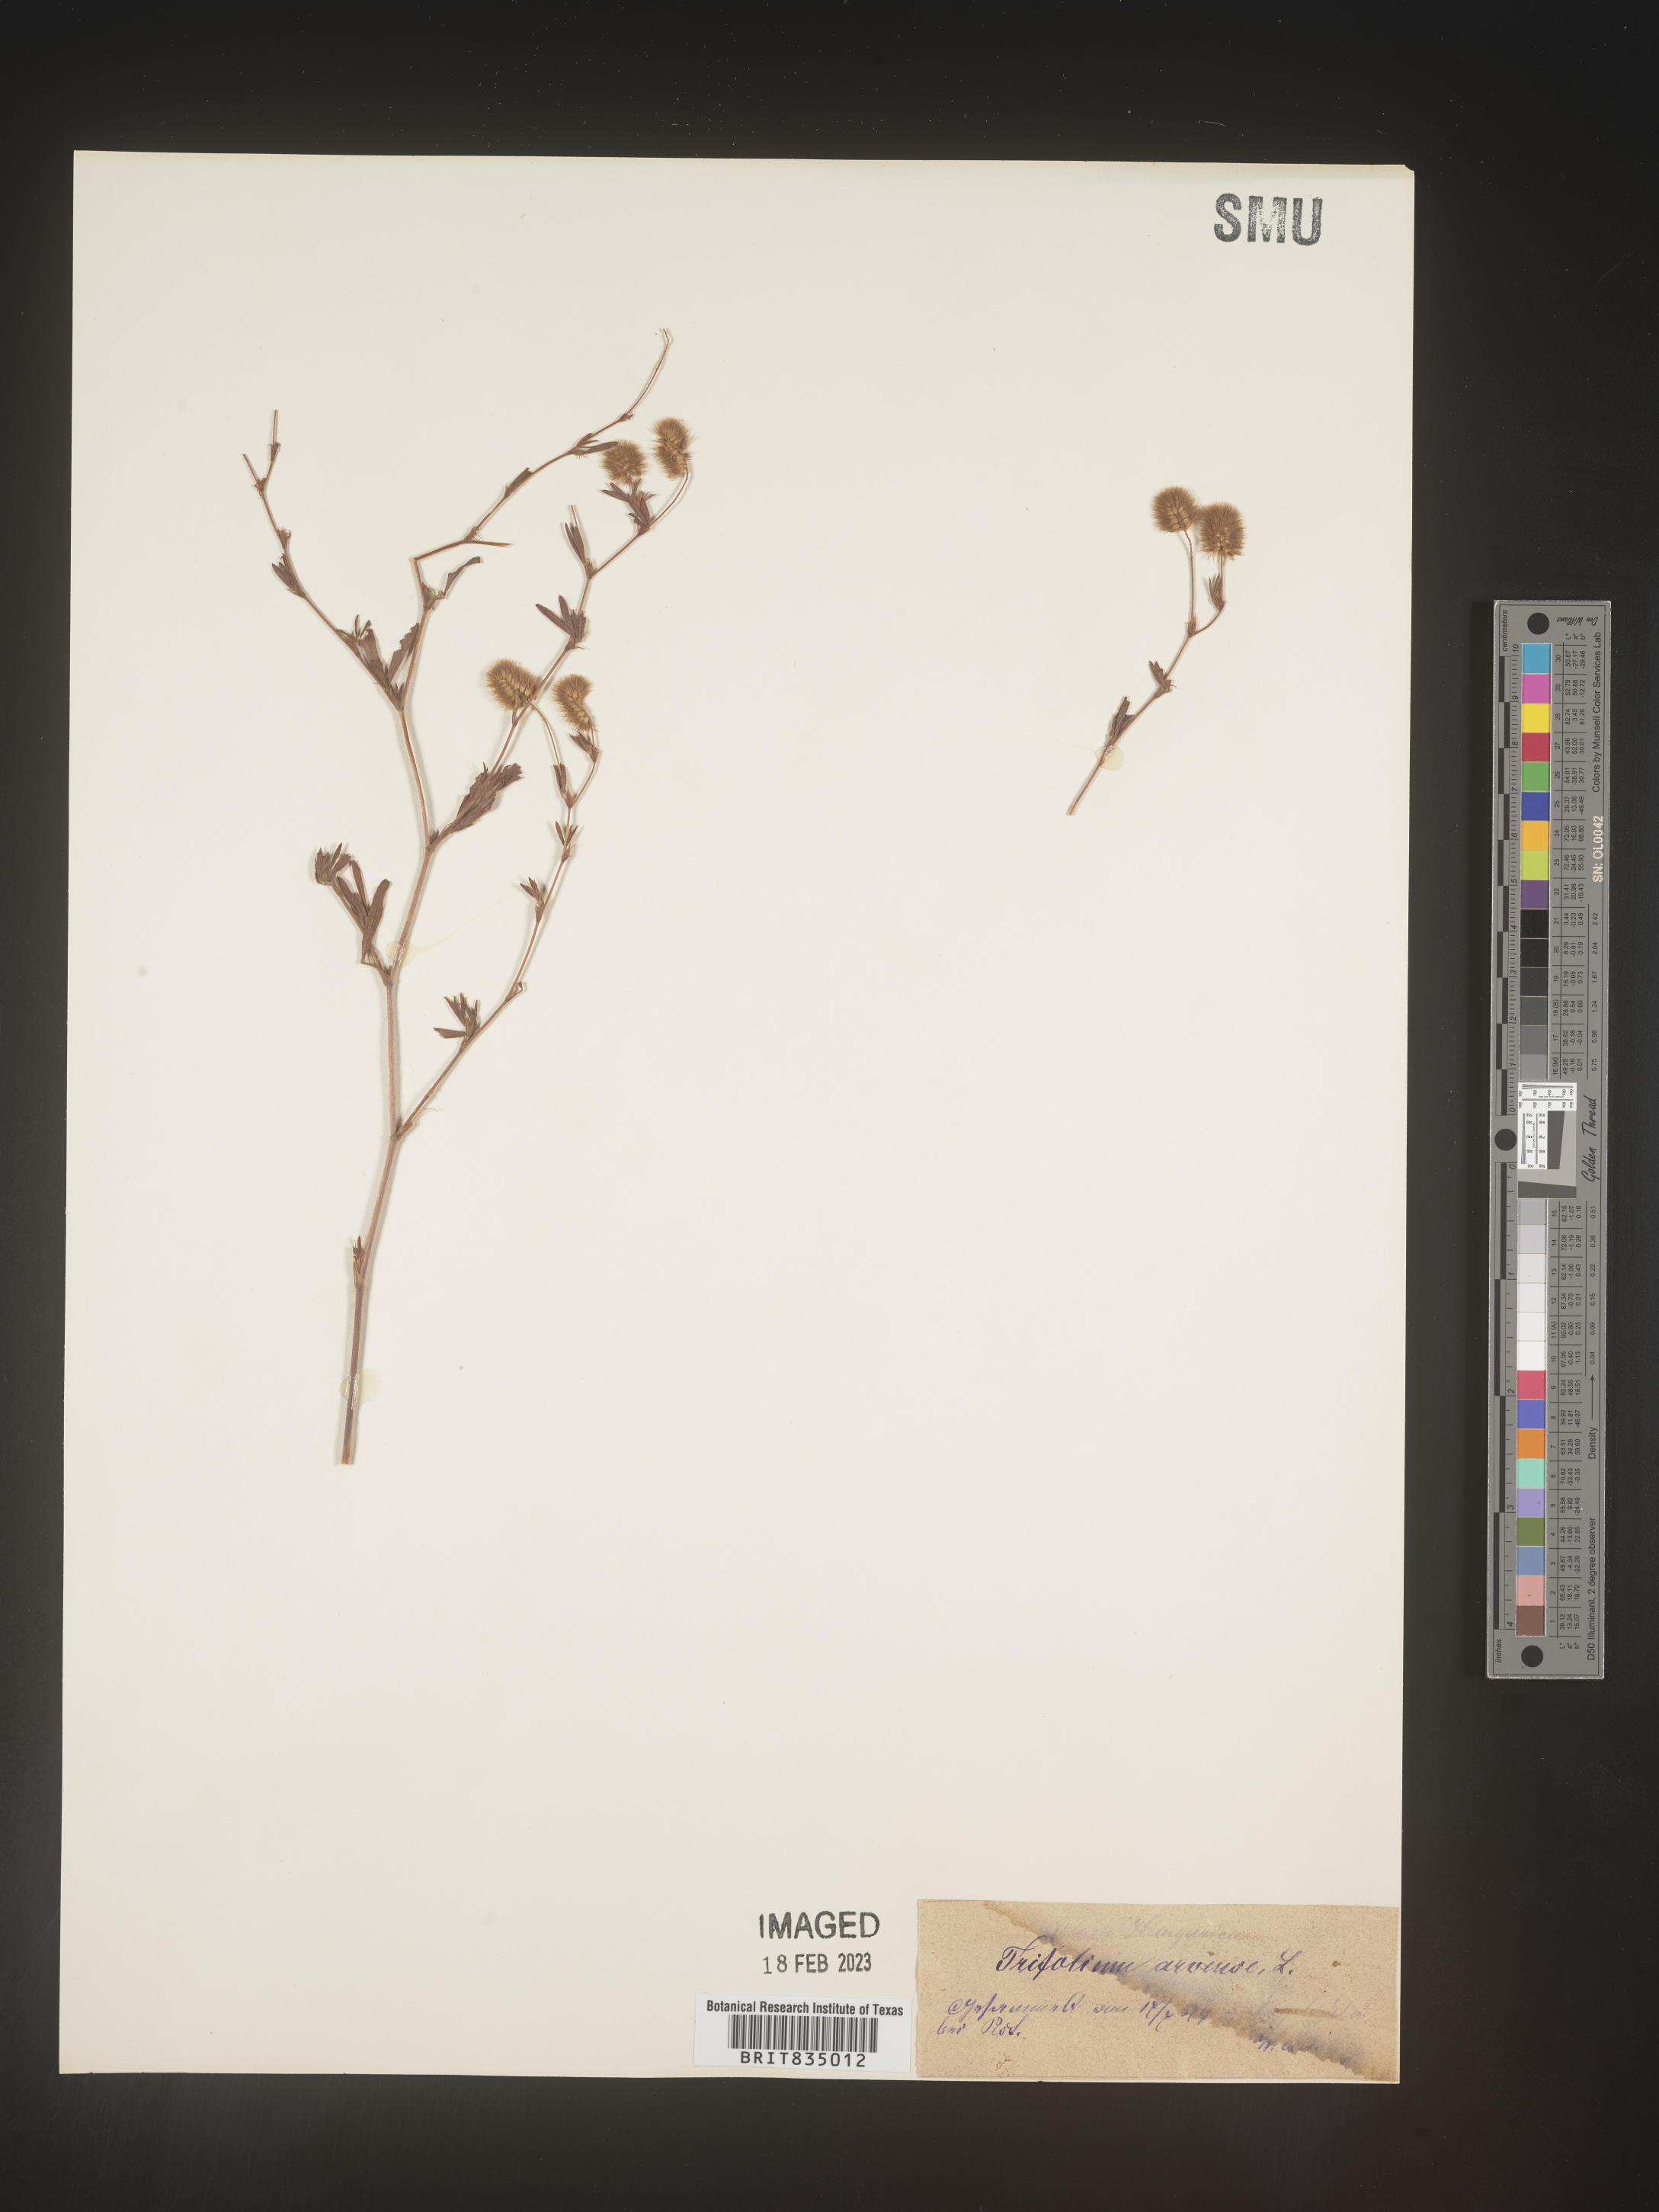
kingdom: Plantae
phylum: Tracheophyta
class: Magnoliopsida
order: Fabales
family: Fabaceae
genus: Trifolium
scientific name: Trifolium
